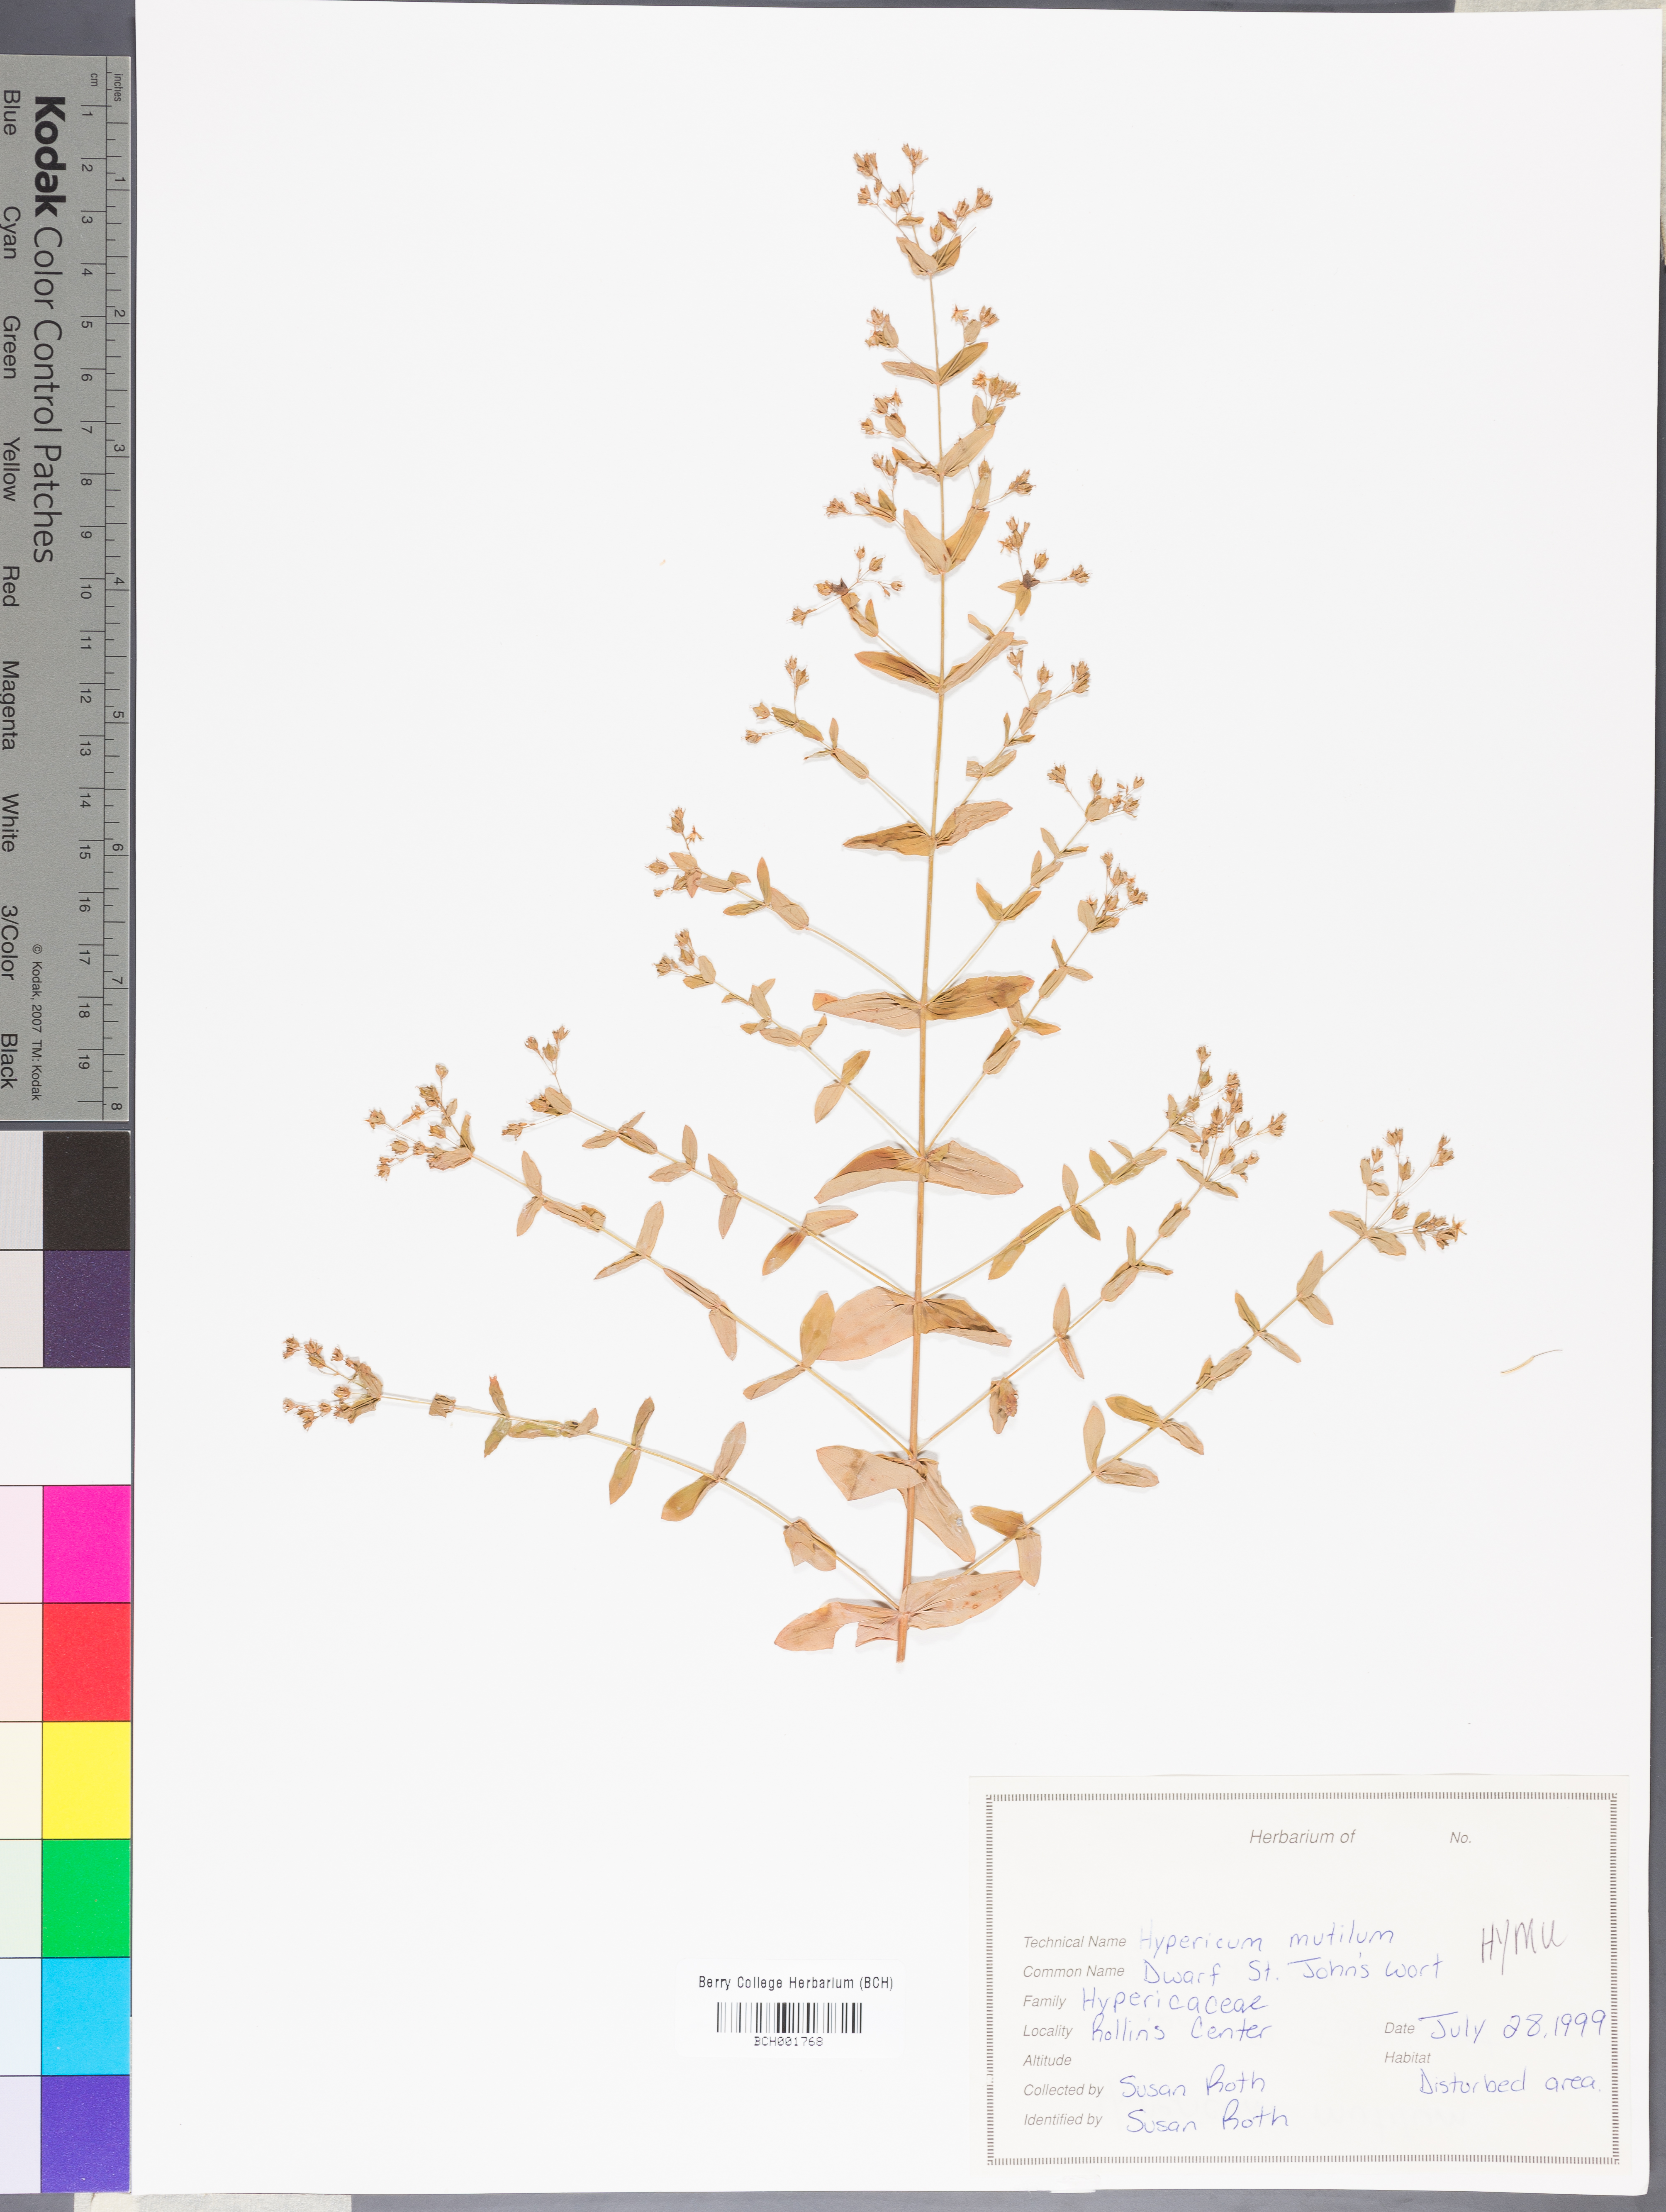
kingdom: Plantae
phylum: Tracheophyta
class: Magnoliopsida
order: Malpighiales
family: Hypericaceae
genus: Hypericum
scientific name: Hypericum mutilum
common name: Dwarf st. john's-wort
